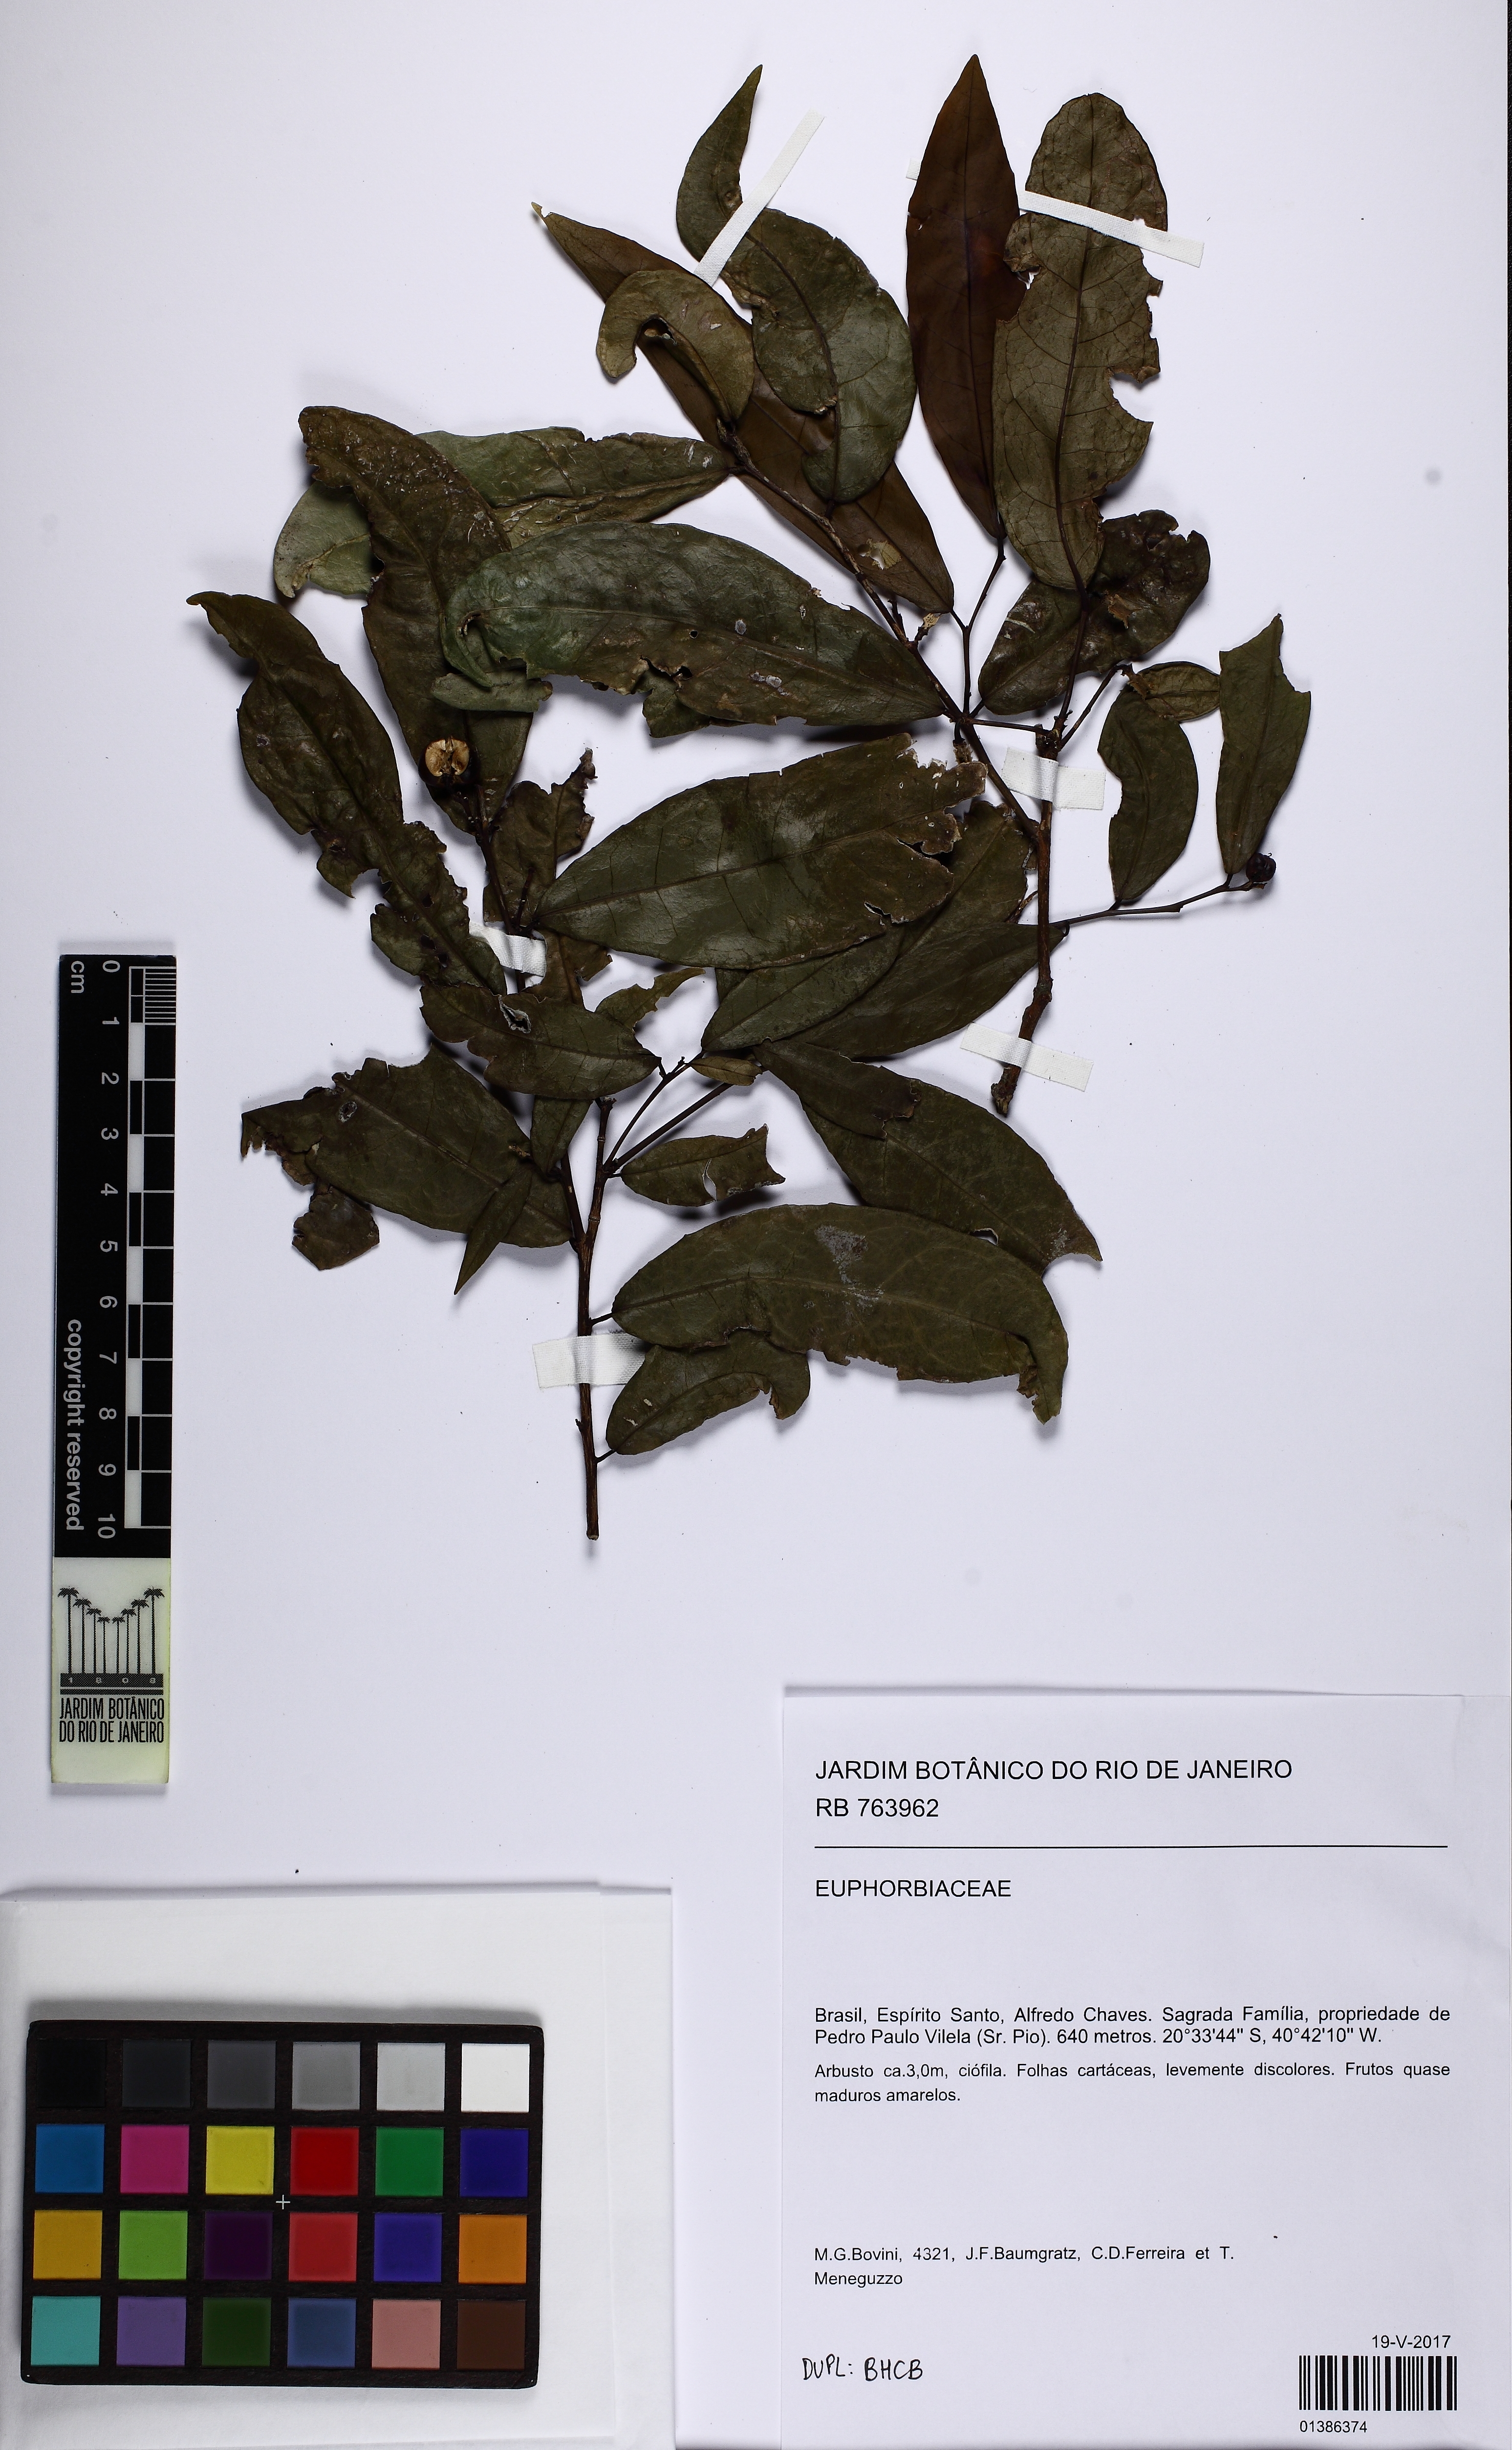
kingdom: Plantae
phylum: Tracheophyta
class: Magnoliopsida
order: Malpighiales
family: Euphorbiaceae
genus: Gymnanthes
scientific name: Gymnanthes glabrata
